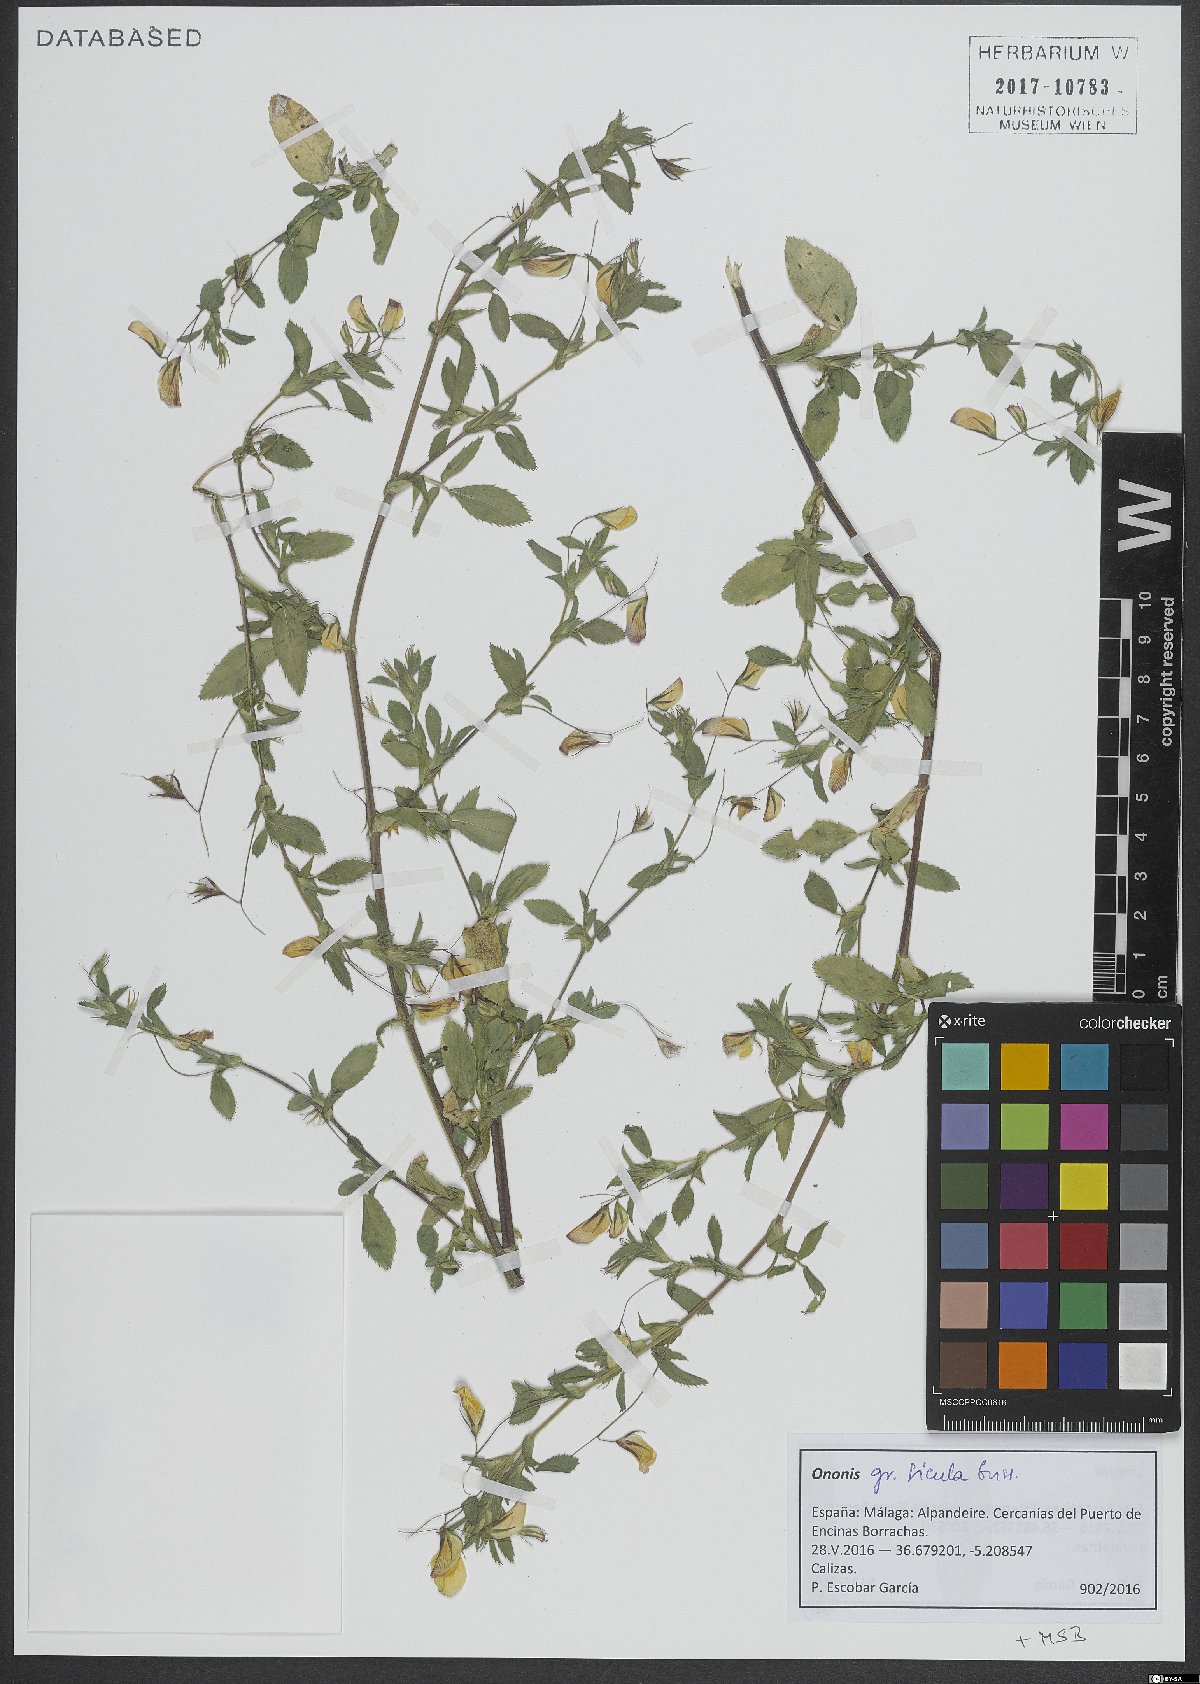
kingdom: Plantae
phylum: Tracheophyta
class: Magnoliopsida
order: Fabales
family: Fabaceae
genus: Ononis
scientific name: Ononis sicula
